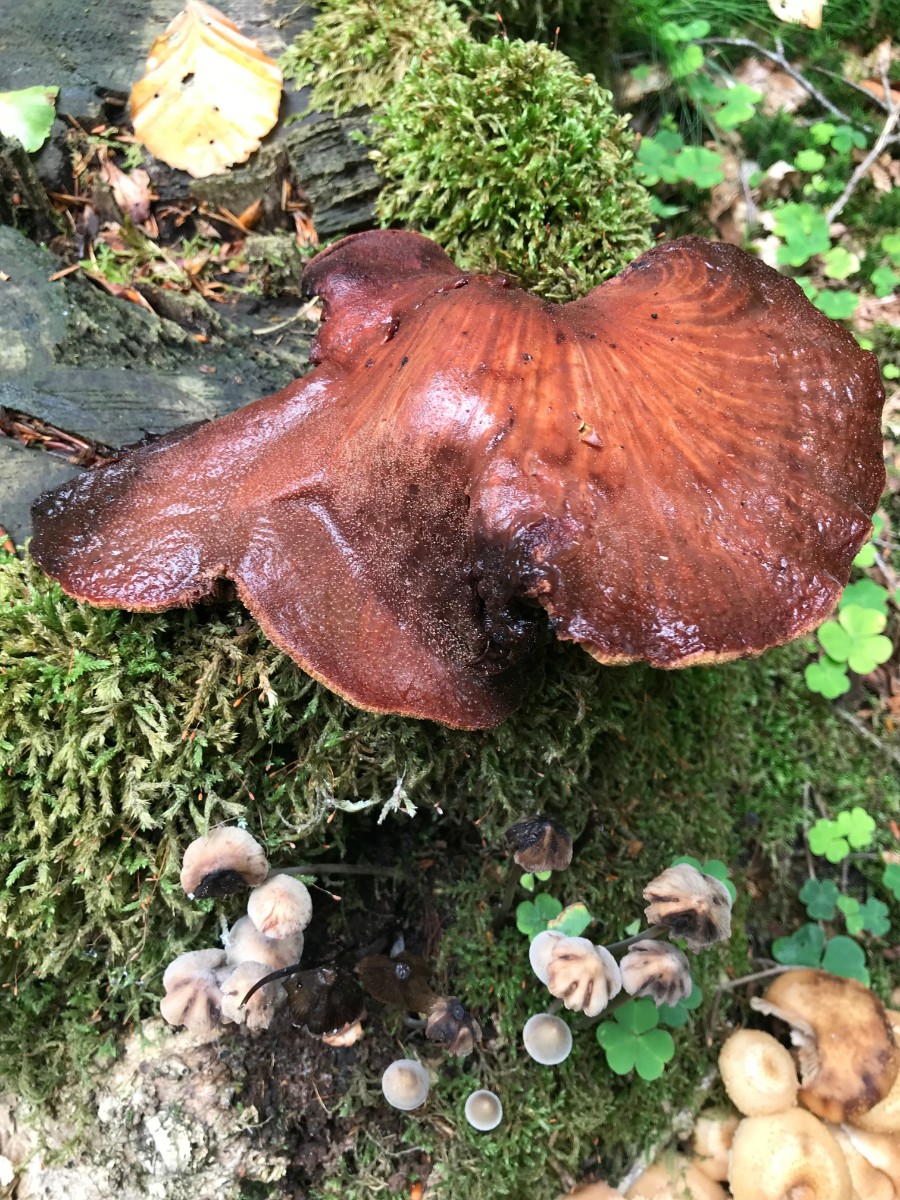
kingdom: Fungi
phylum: Basidiomycota
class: Agaricomycetes
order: Agaricales
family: Fistulinaceae
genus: Fistulina
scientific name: Fistulina hepatica
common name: oksetunge
